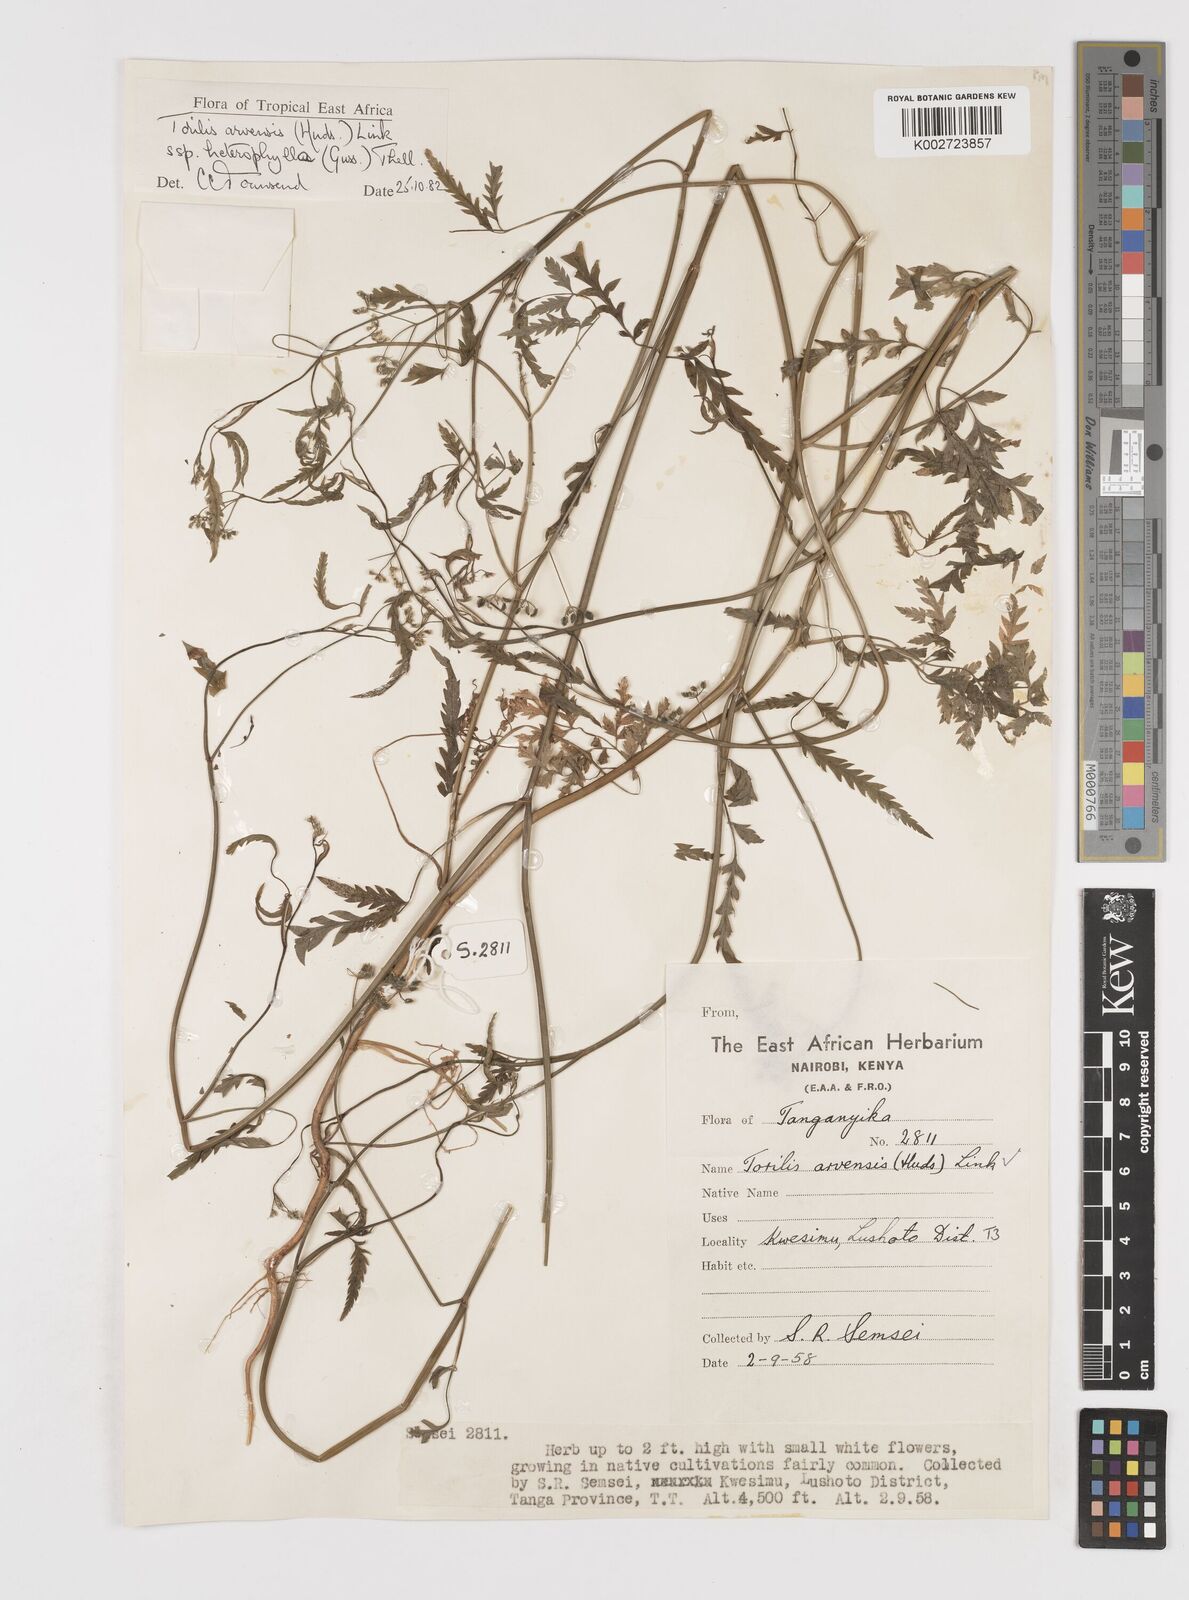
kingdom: Plantae
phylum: Tracheophyta
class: Magnoliopsida
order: Apiales
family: Apiaceae
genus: Torilis
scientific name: Torilis arvensis
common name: Spreading hedge-parsley
